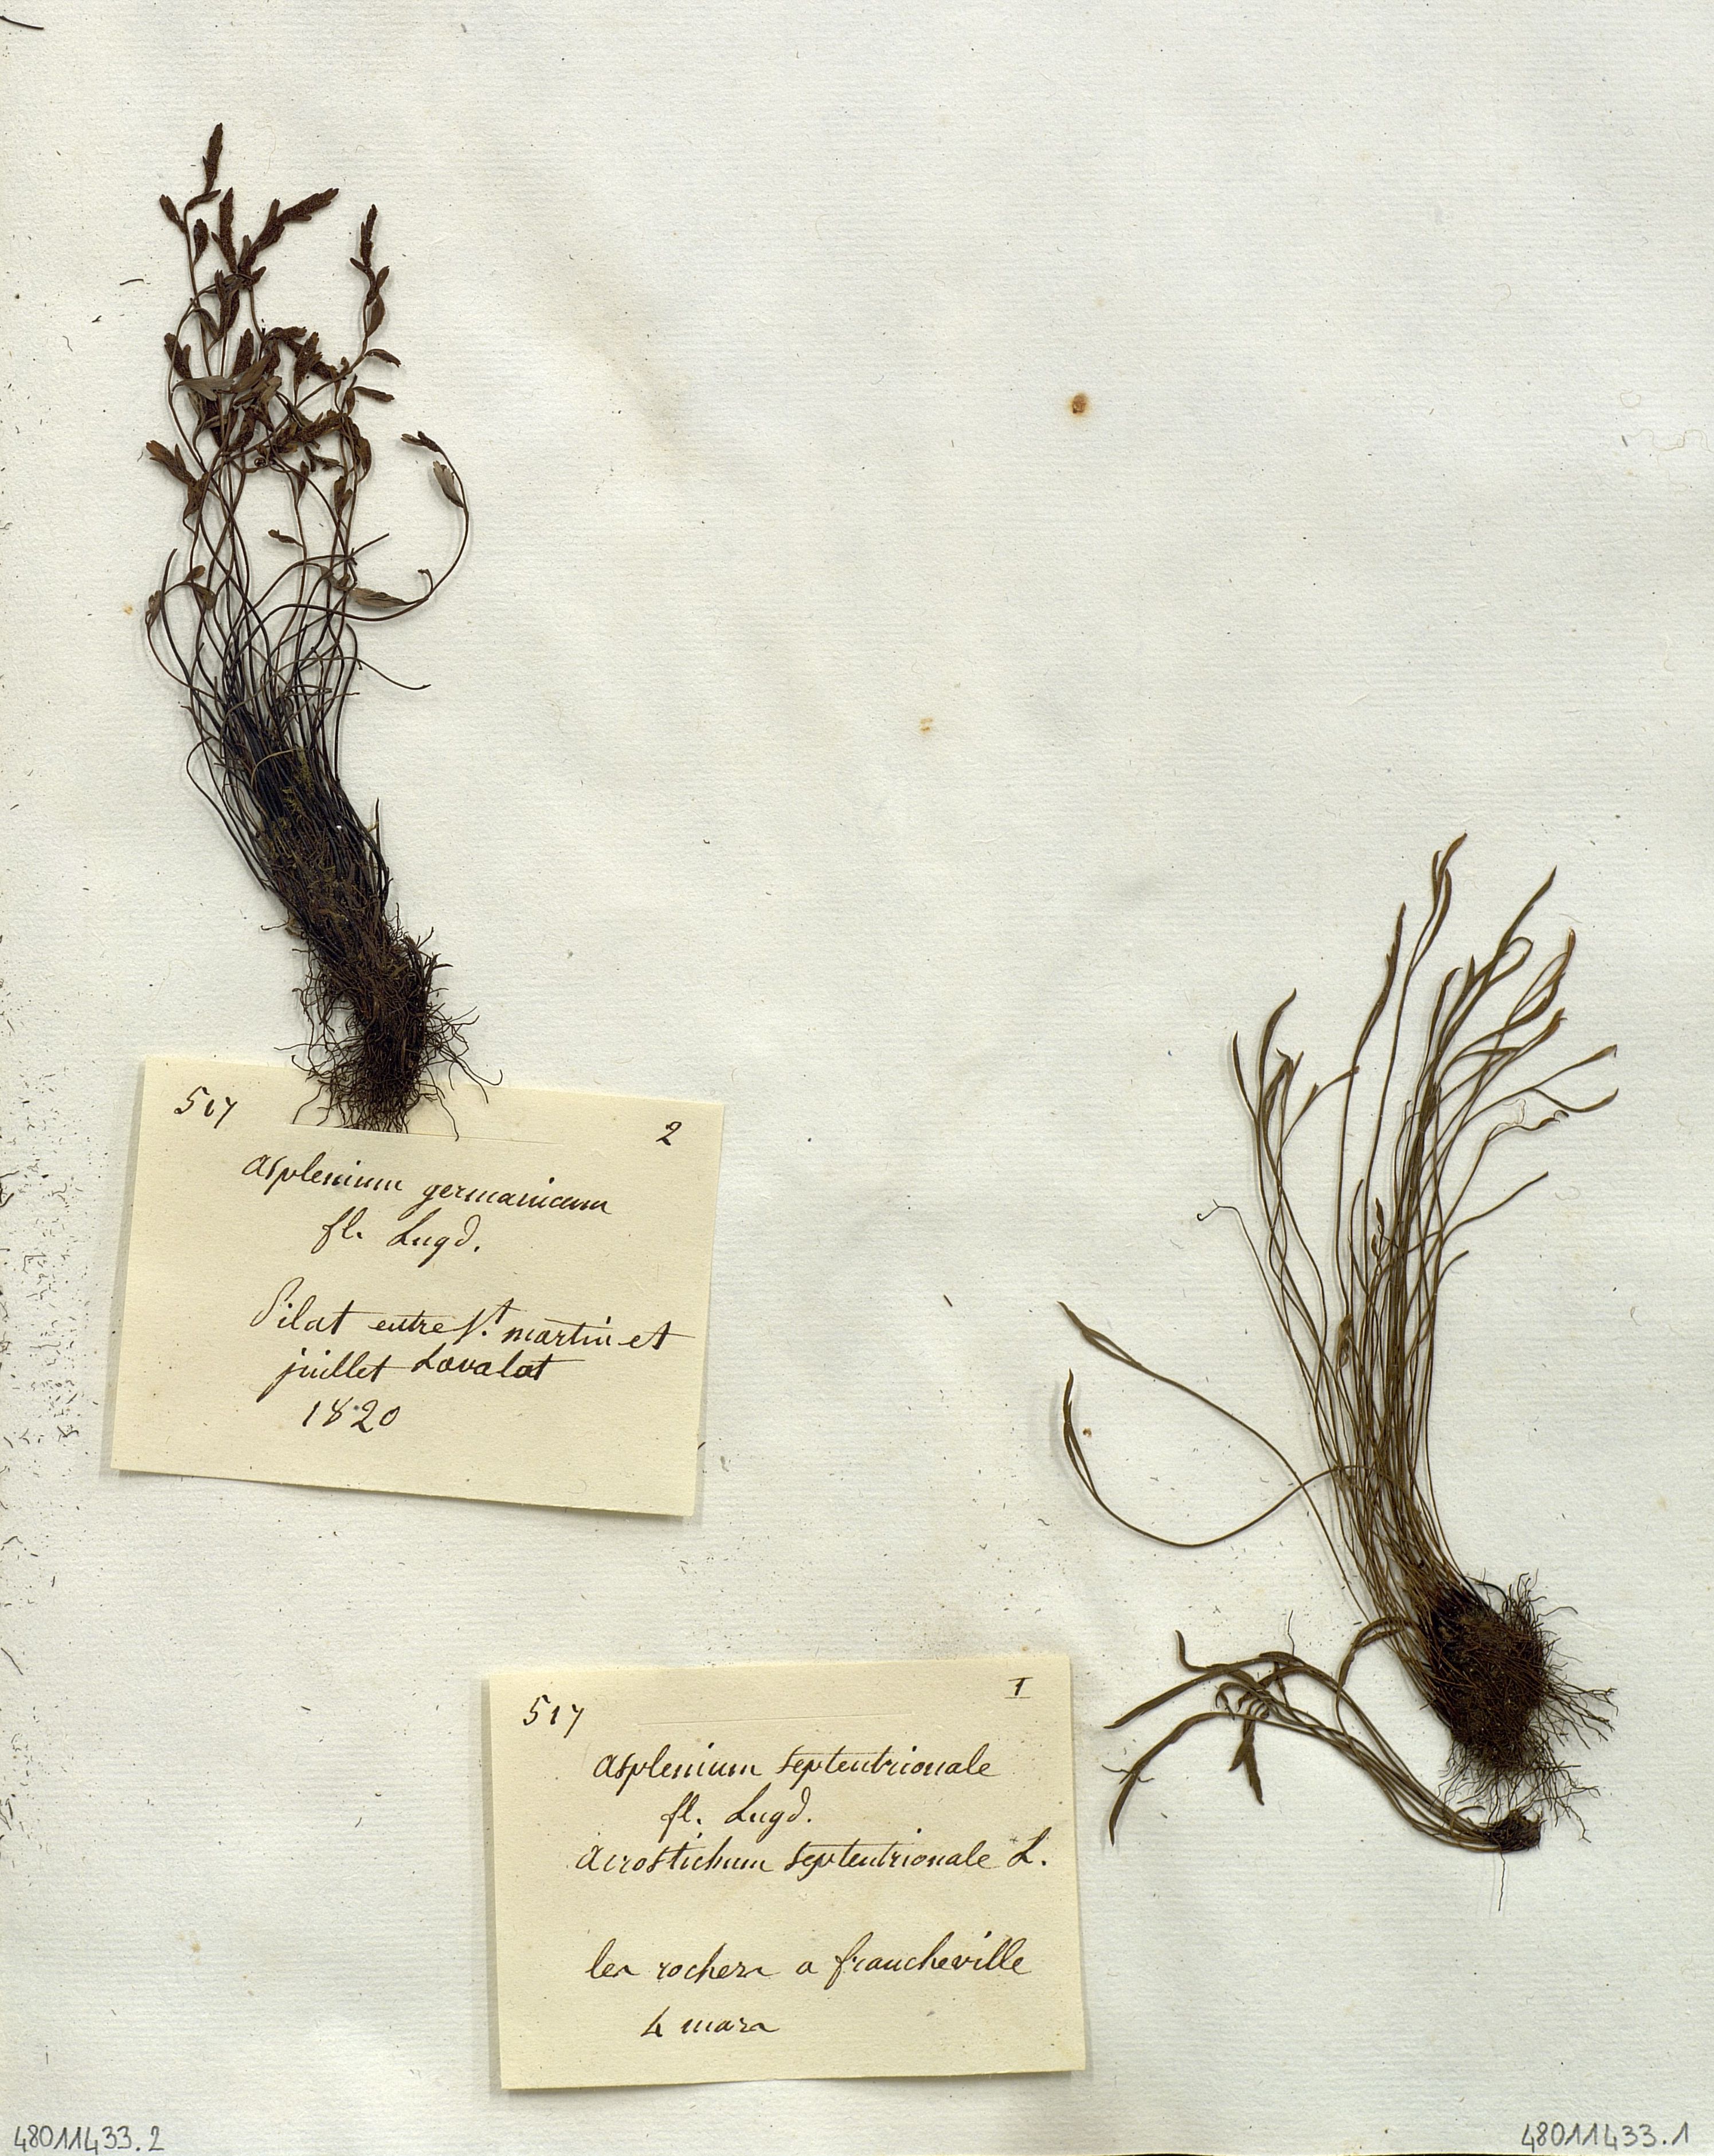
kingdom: Plantae
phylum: Tracheophyta
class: Polypodiopsida
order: Polypodiales
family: Aspleniaceae
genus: Asplenium
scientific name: Asplenium septentrionale
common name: Forked spleenwort
